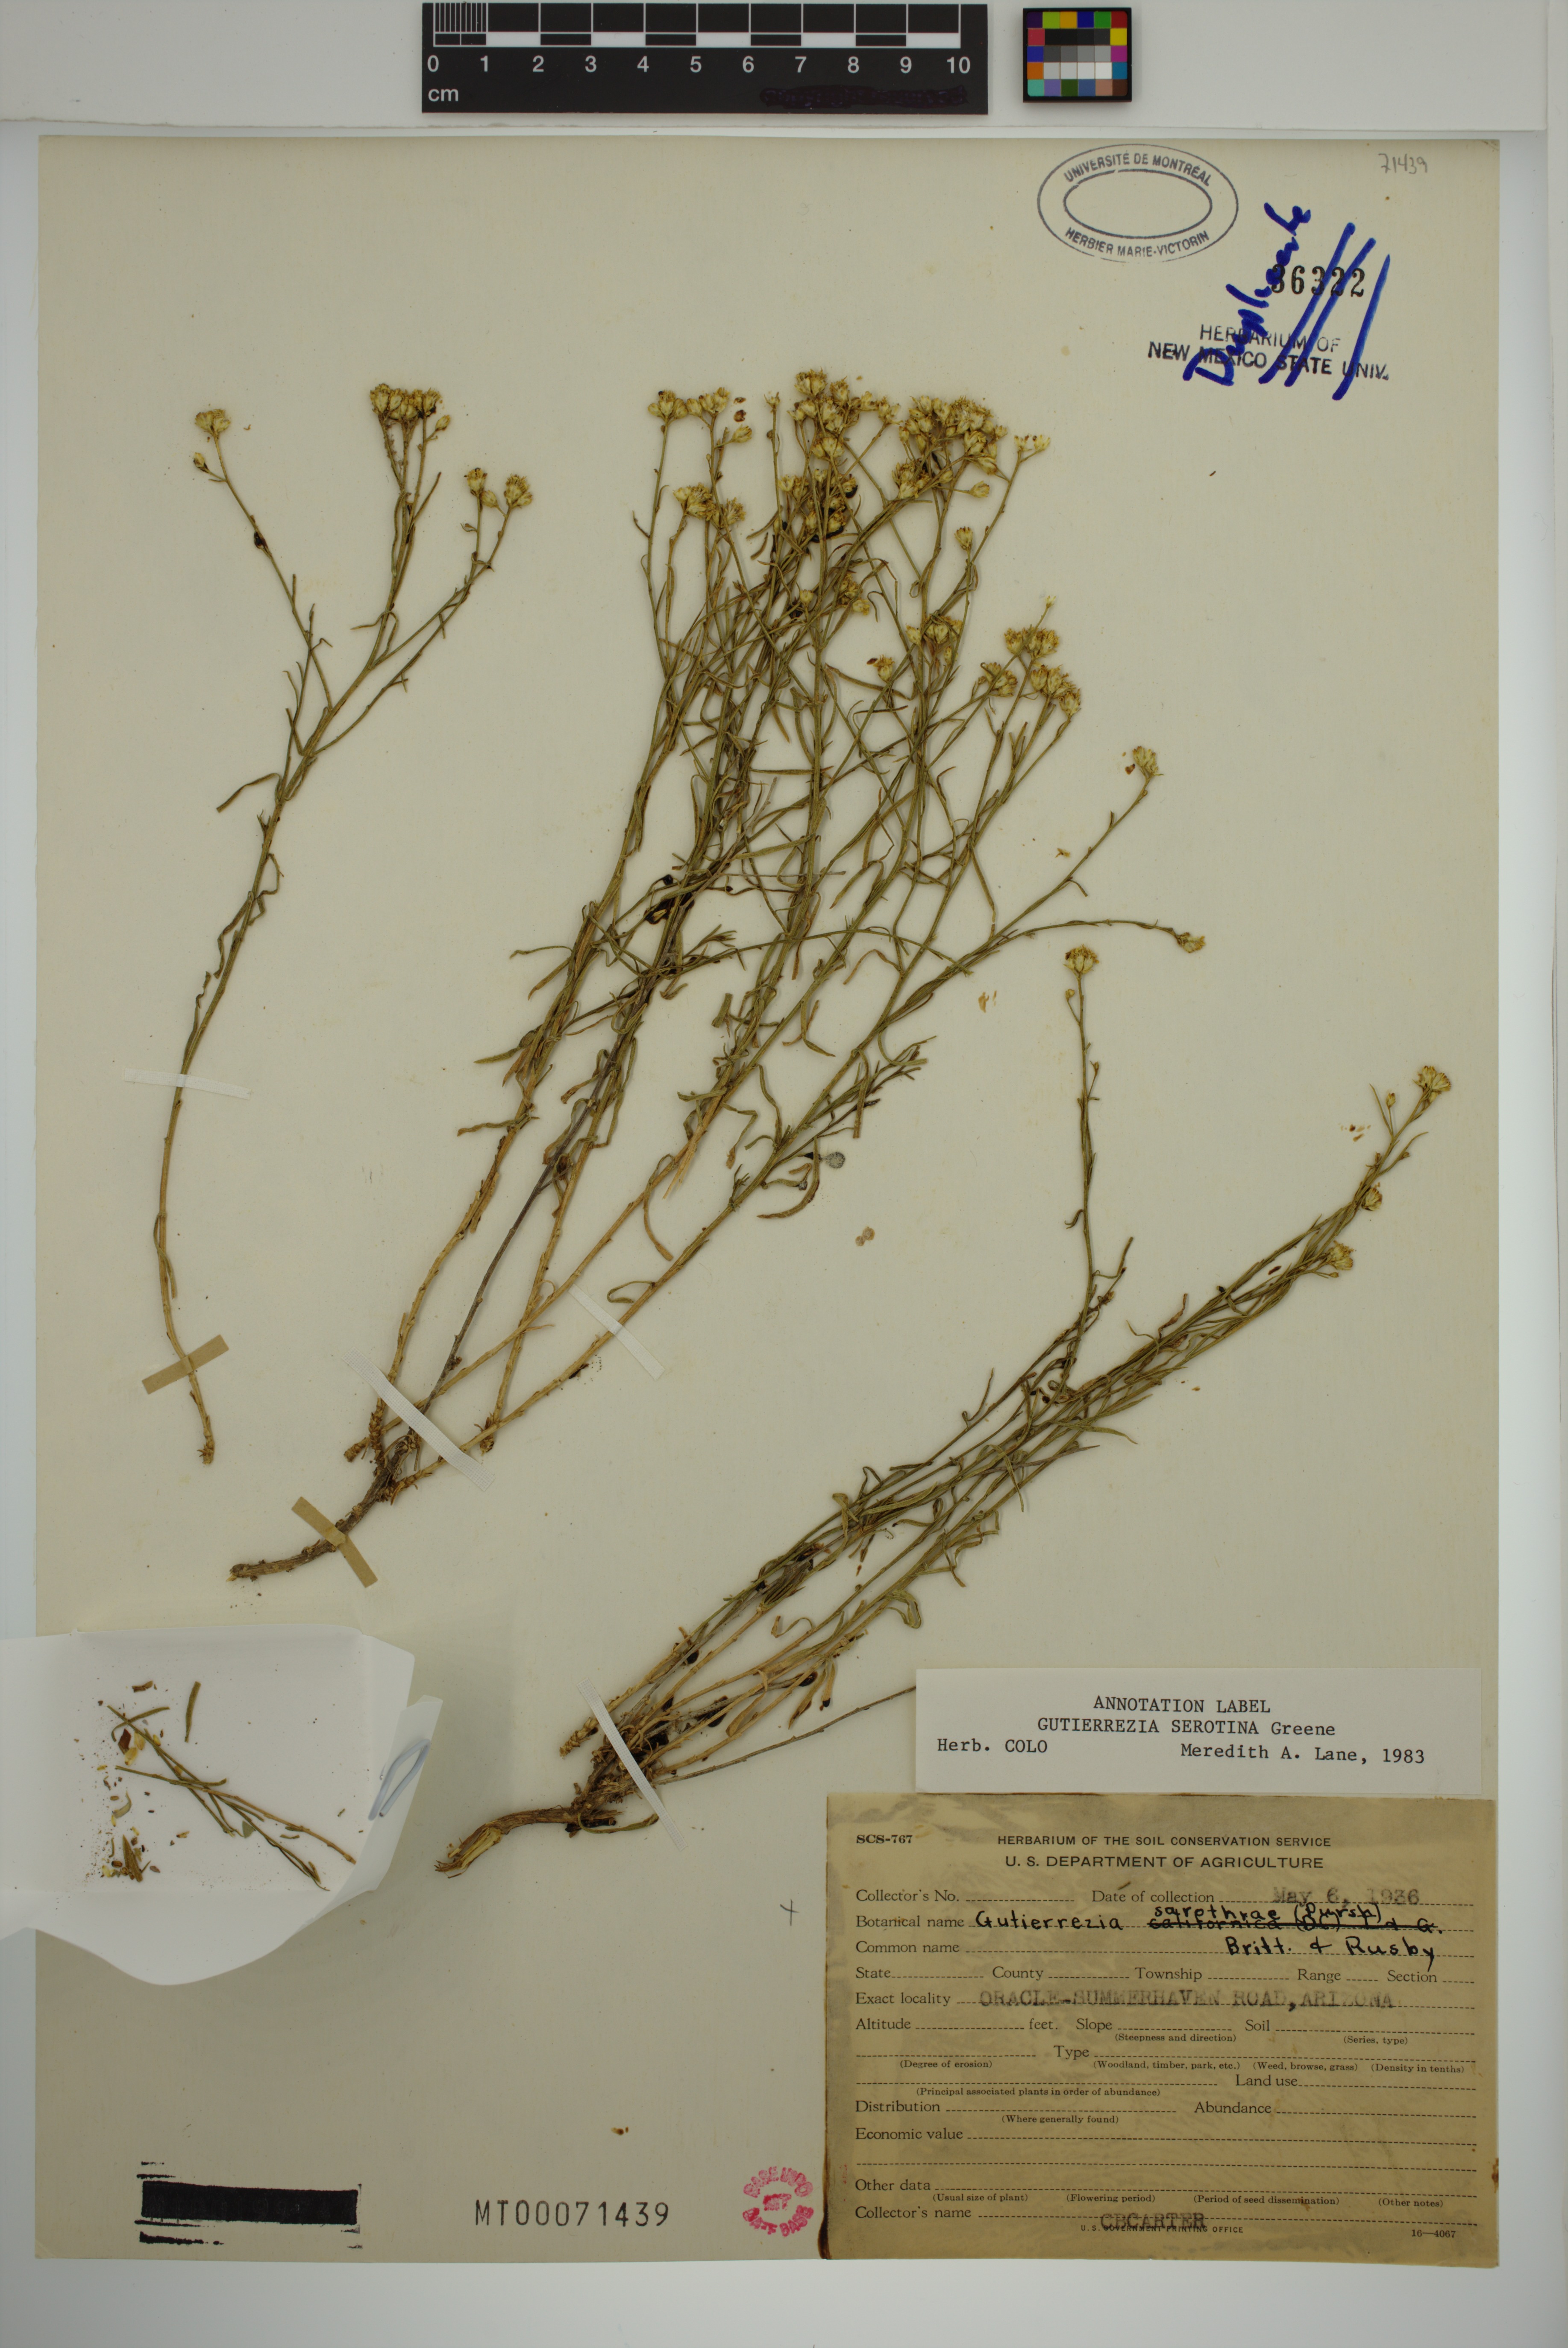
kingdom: Plantae
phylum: Tracheophyta
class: Magnoliopsida
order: Asterales
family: Asteraceae
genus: Gutierrezia
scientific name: Gutierrezia serotina
